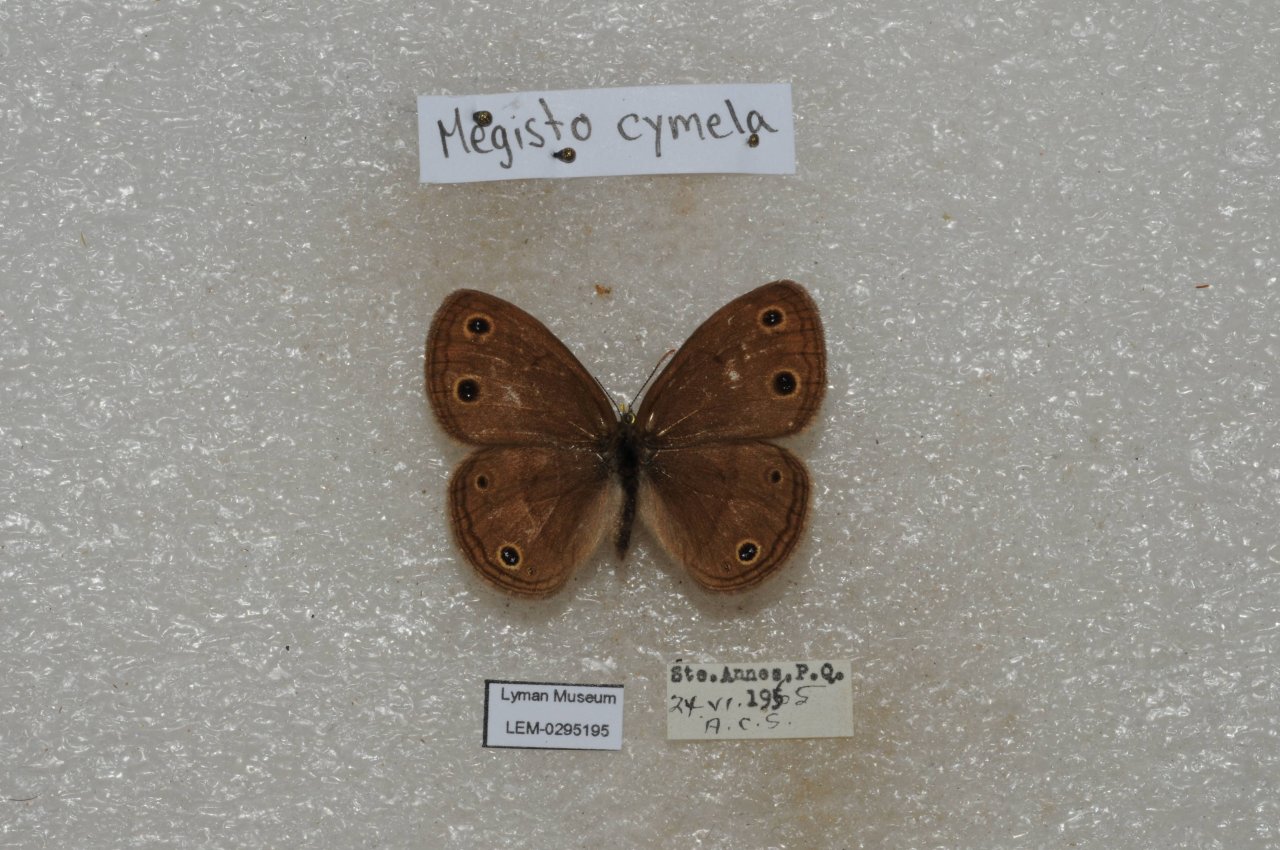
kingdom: Animalia
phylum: Arthropoda
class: Insecta
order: Lepidoptera
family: Nymphalidae
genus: Euptychia
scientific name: Euptychia cymela
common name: Little Wood Satyr
